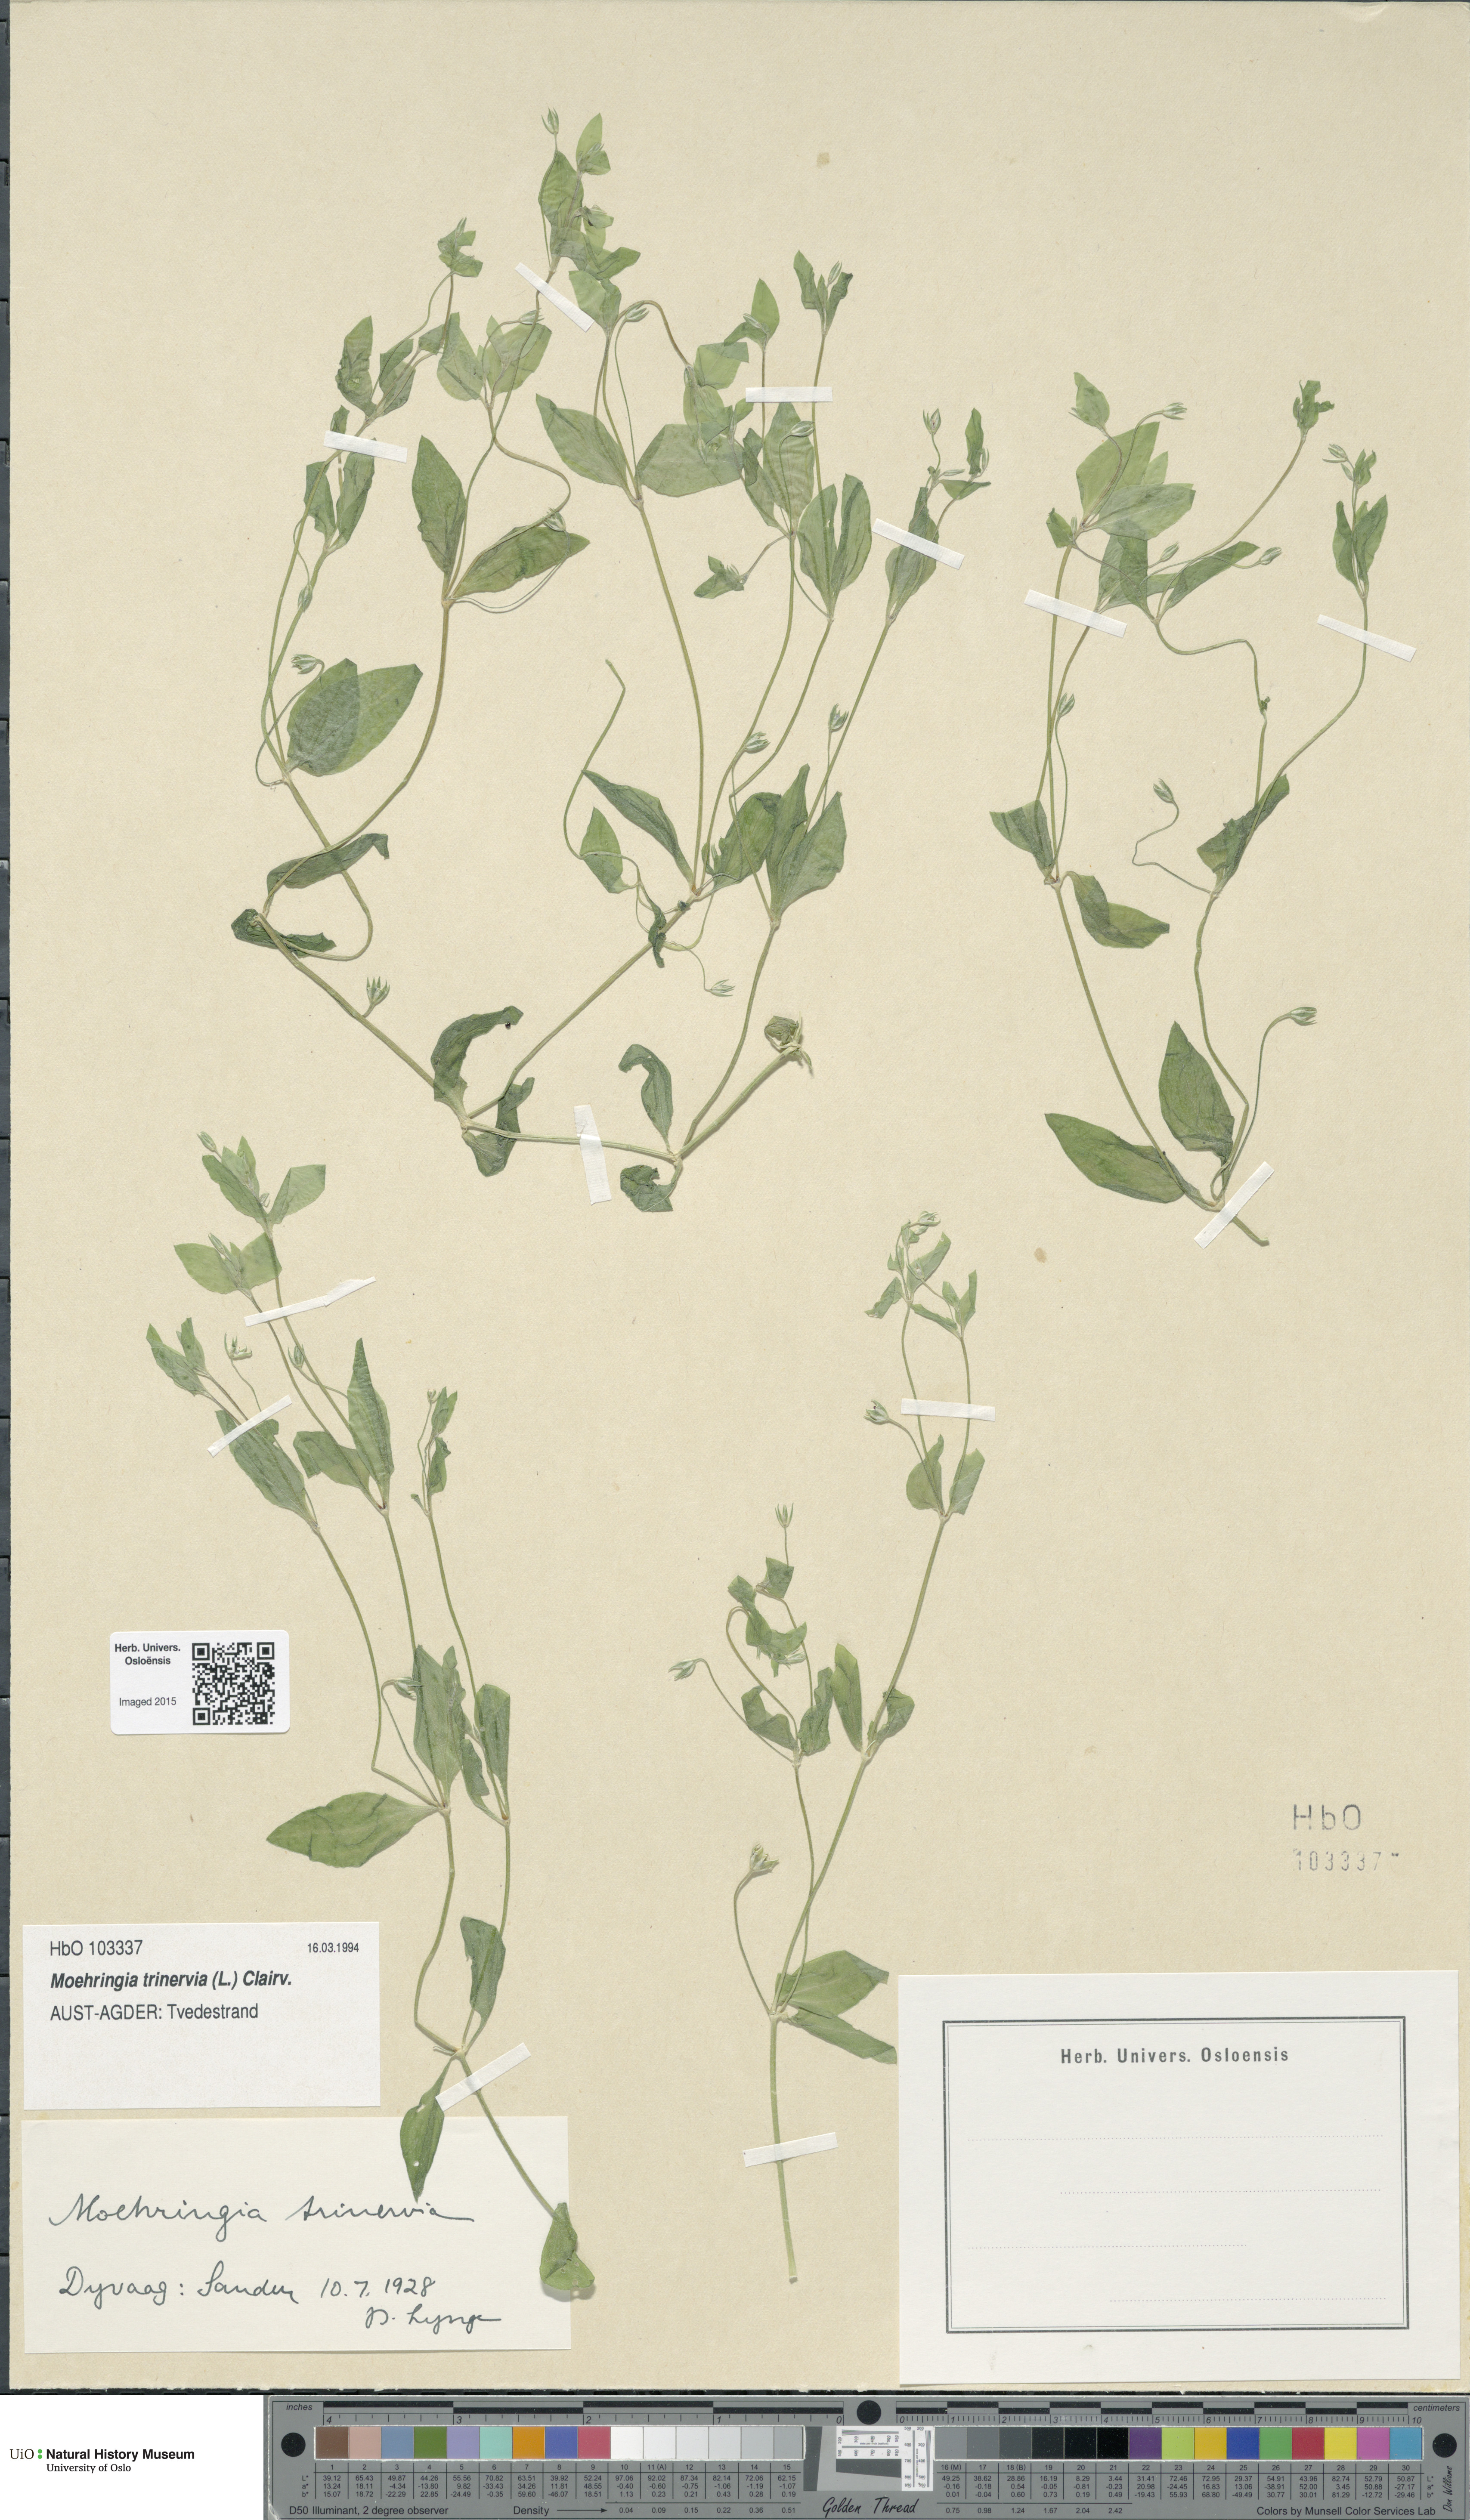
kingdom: Plantae
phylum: Tracheophyta
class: Magnoliopsida
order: Caryophyllales
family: Caryophyllaceae
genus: Moehringia
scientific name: Moehringia trinervia
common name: Three-nerved sandwort
